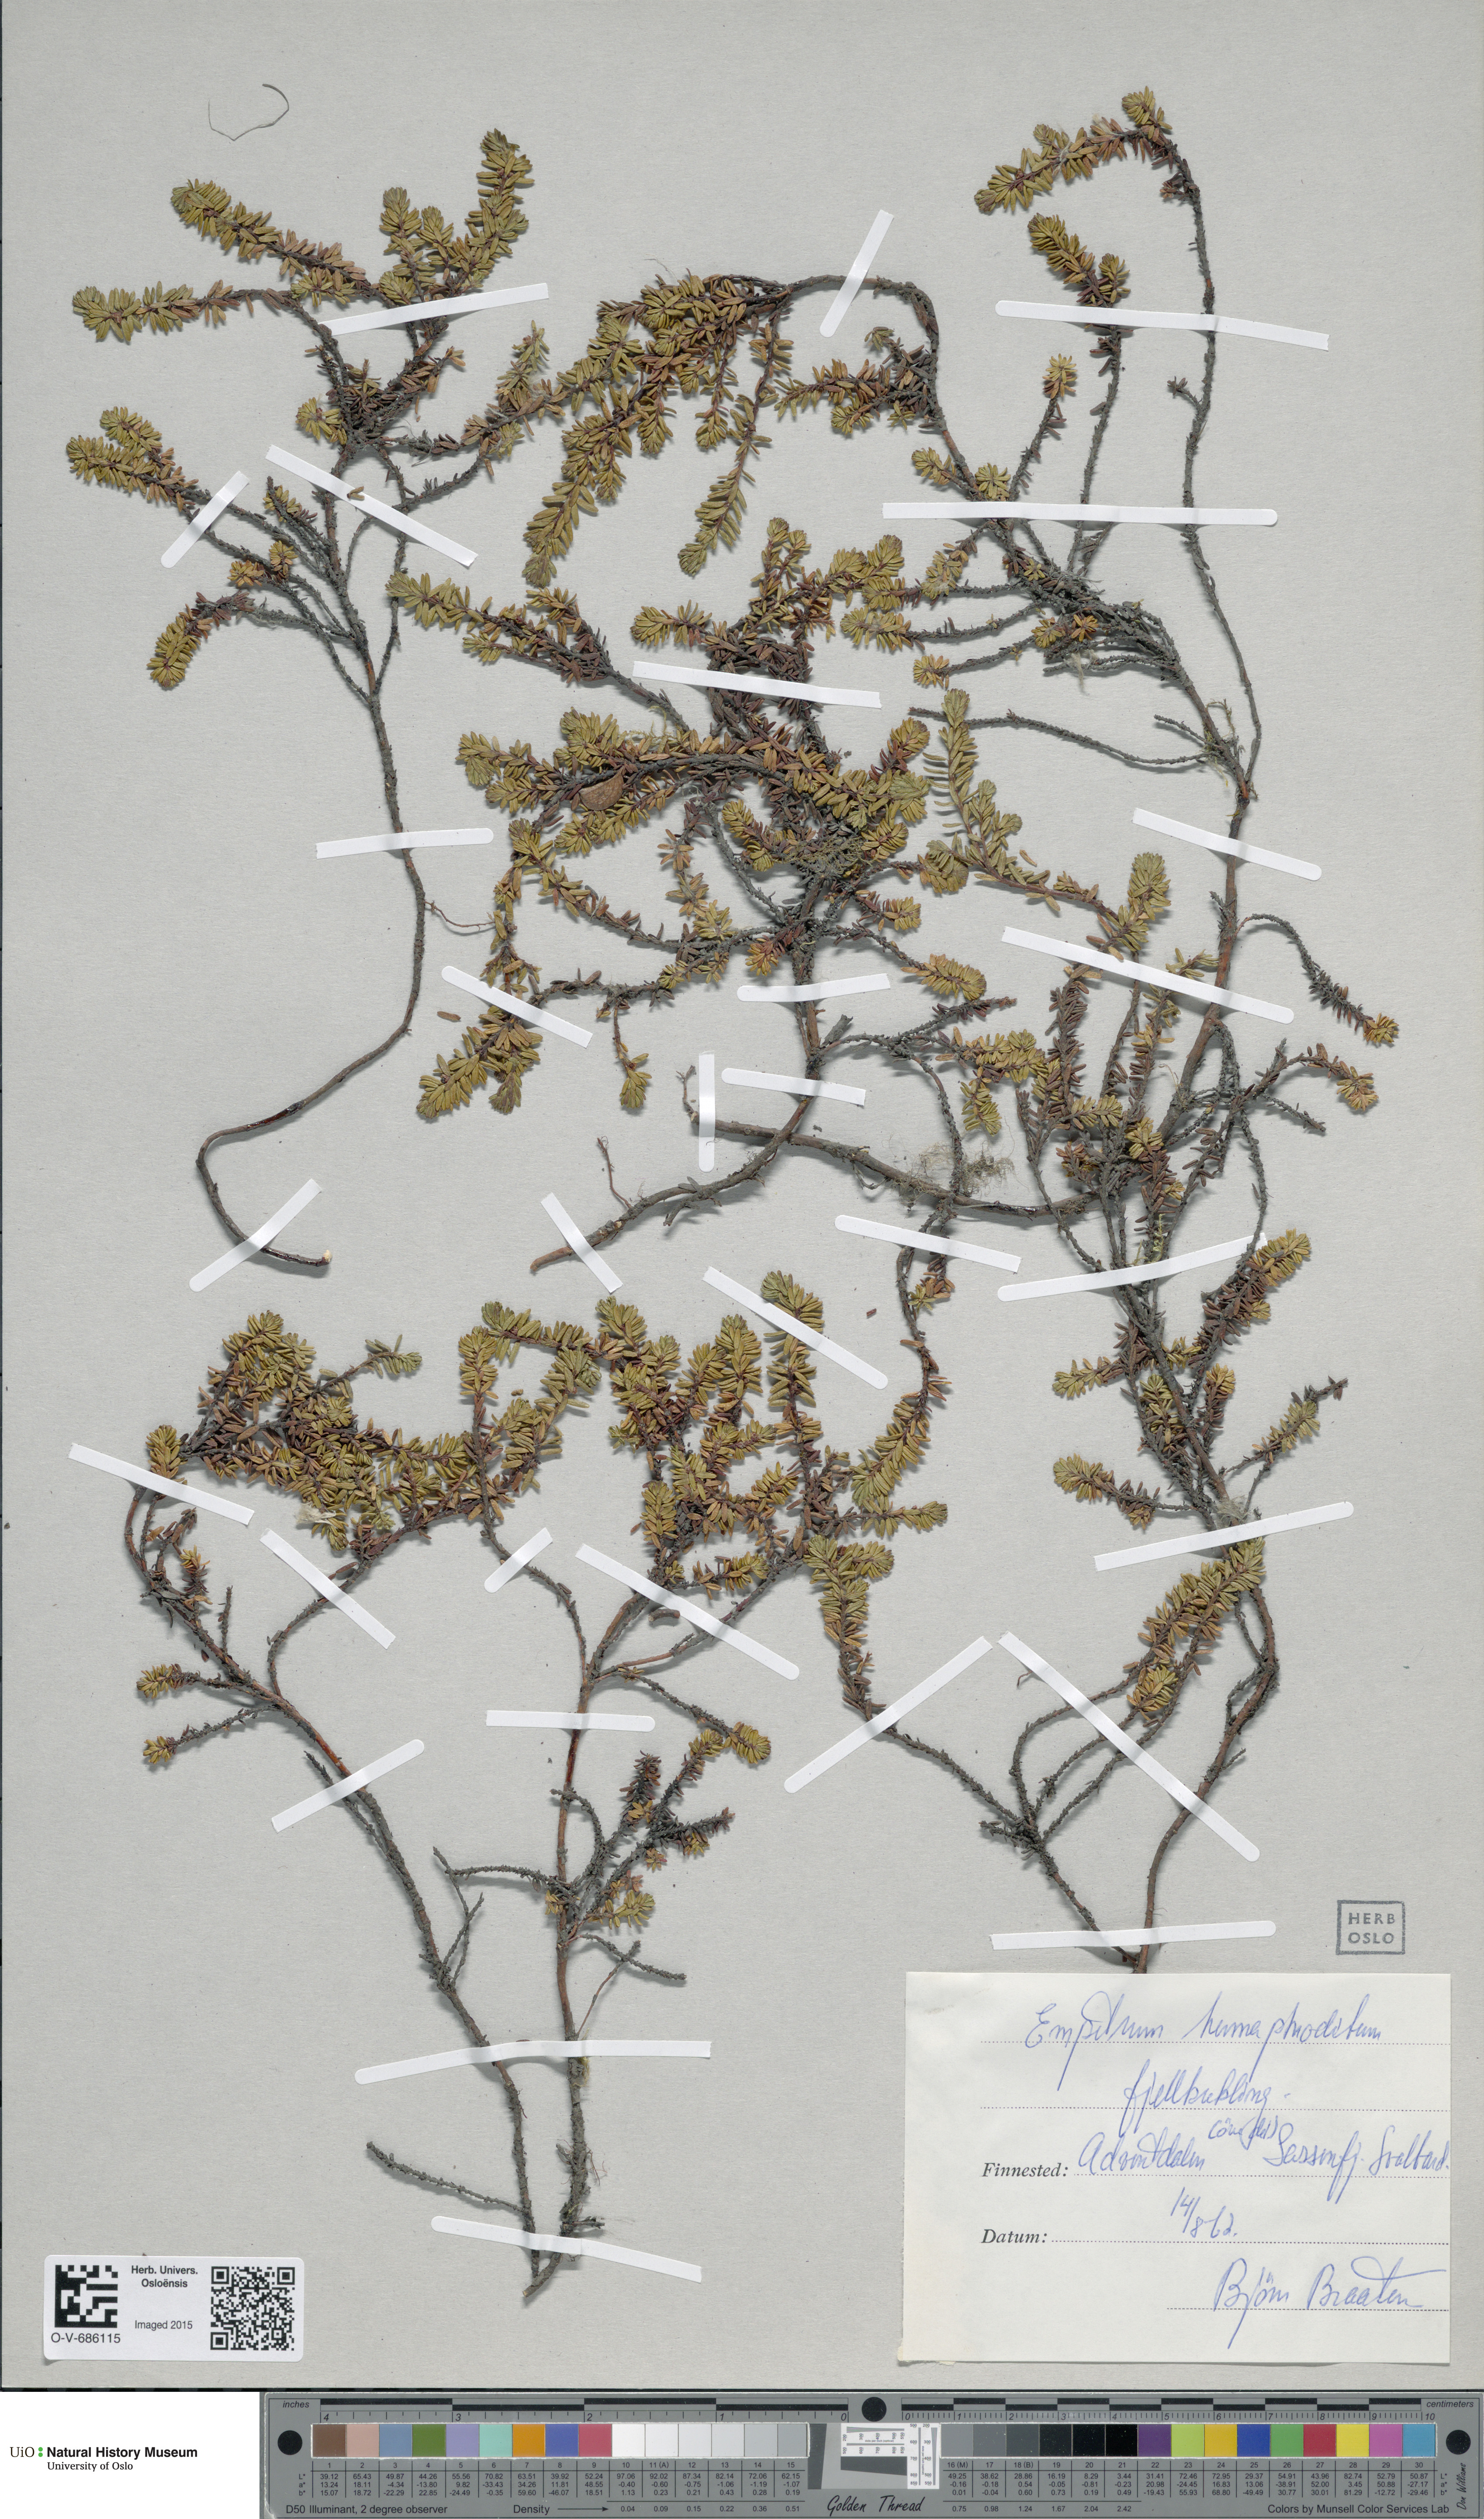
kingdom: Plantae
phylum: Tracheophyta
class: Magnoliopsida
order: Ericales
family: Ericaceae
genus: Empetrum
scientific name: Empetrum hermaphroditum
